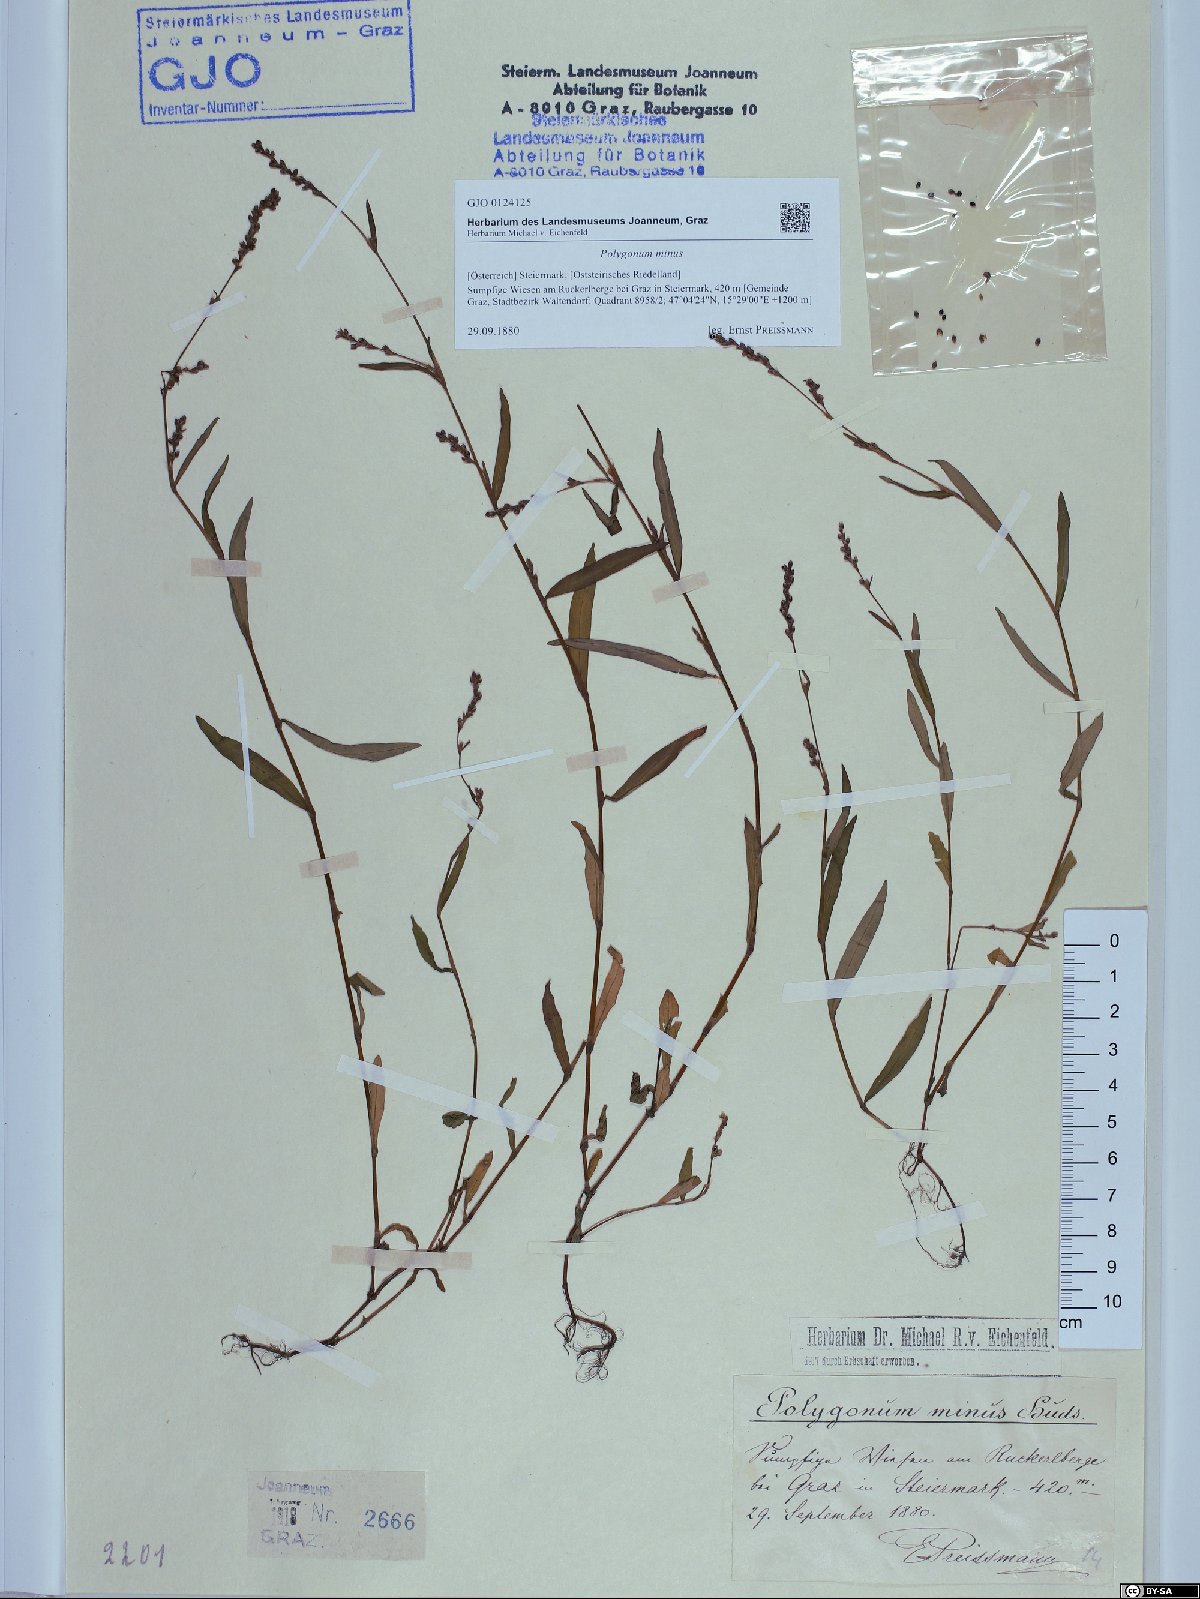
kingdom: Plantae
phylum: Tracheophyta
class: Magnoliopsida
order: Caryophyllales
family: Polygonaceae
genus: Persicaria
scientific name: Persicaria minor
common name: Small water-pepper
